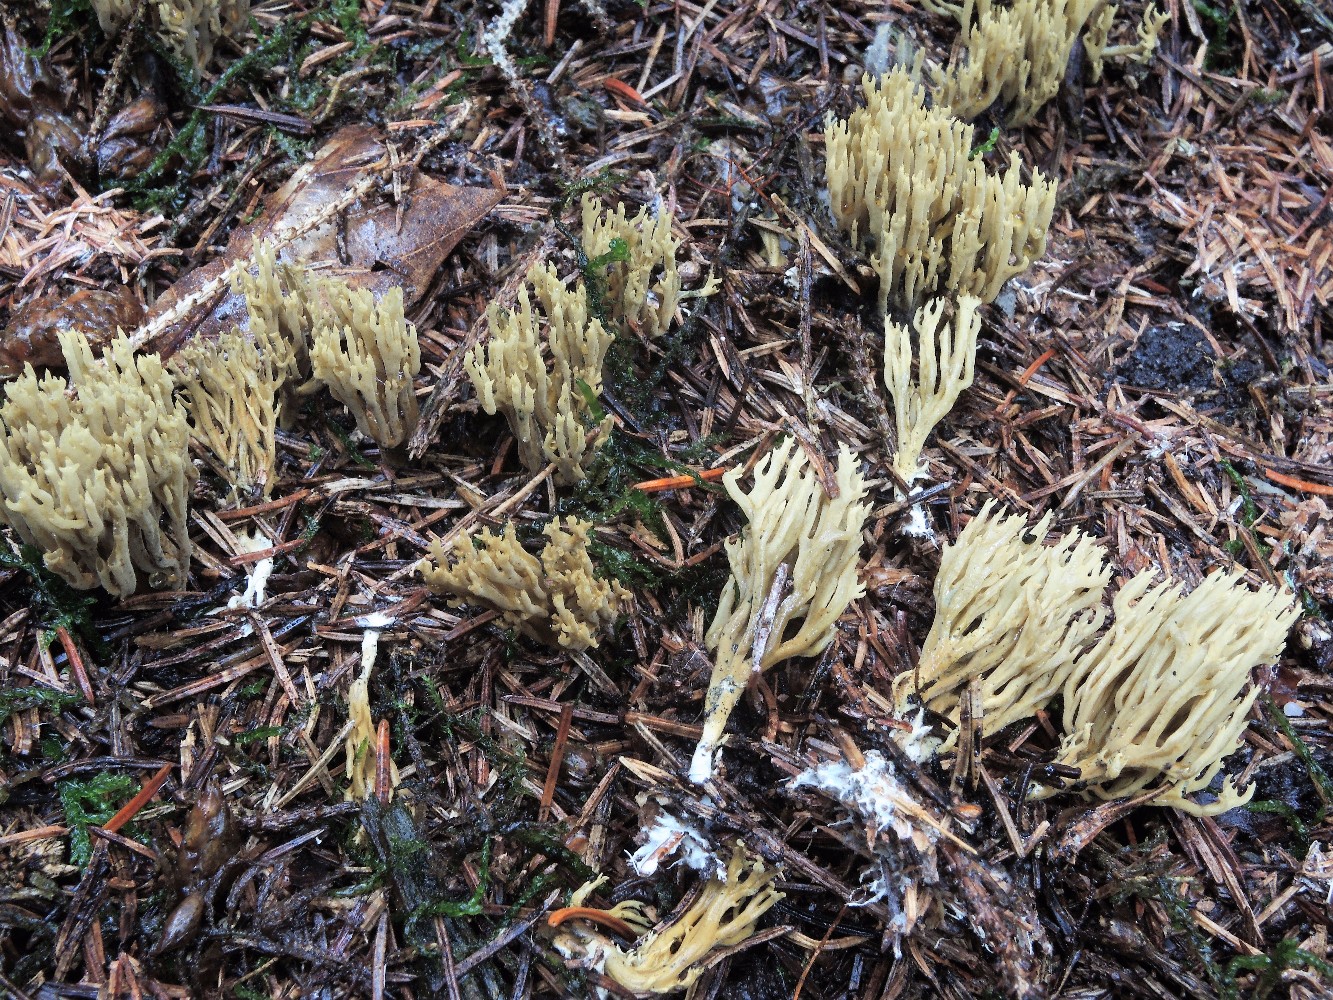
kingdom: Fungi
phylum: Basidiomycota
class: Agaricomycetes
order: Gomphales
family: Gomphaceae
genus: Phaeoclavulina
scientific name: Phaeoclavulina abietina
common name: gulgrøn koralsvamp
